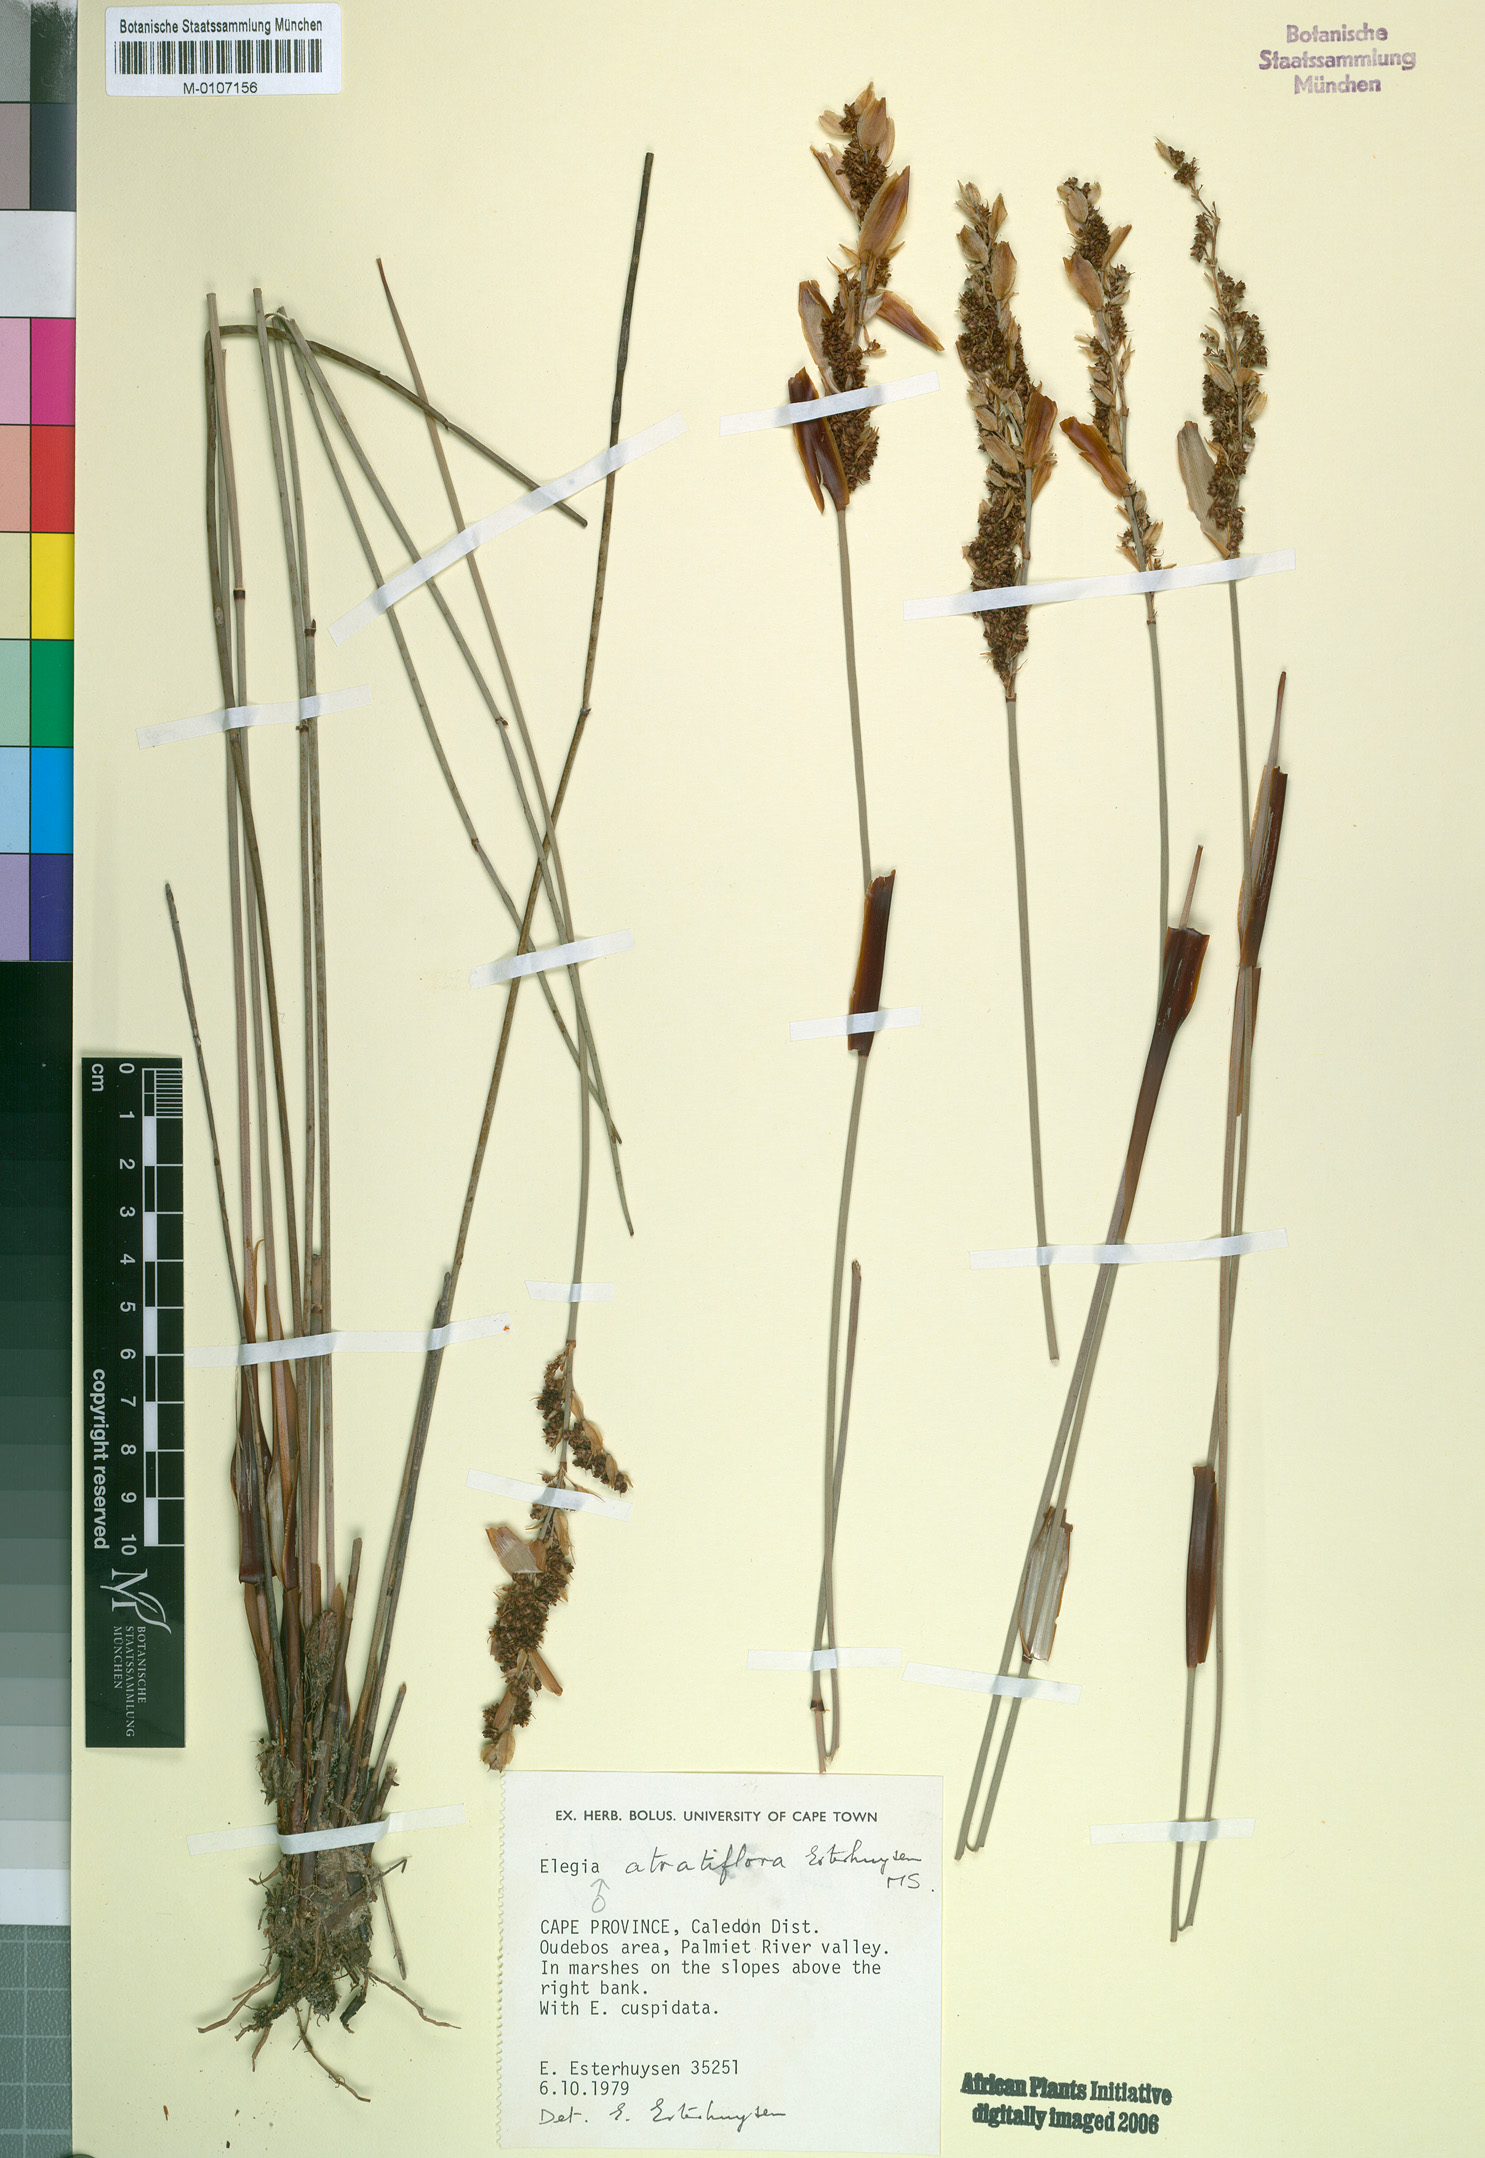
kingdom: Plantae
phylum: Tracheophyta
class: Liliopsida
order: Poales
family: Restionaceae
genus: Elegia
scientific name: Elegia atratiflora
